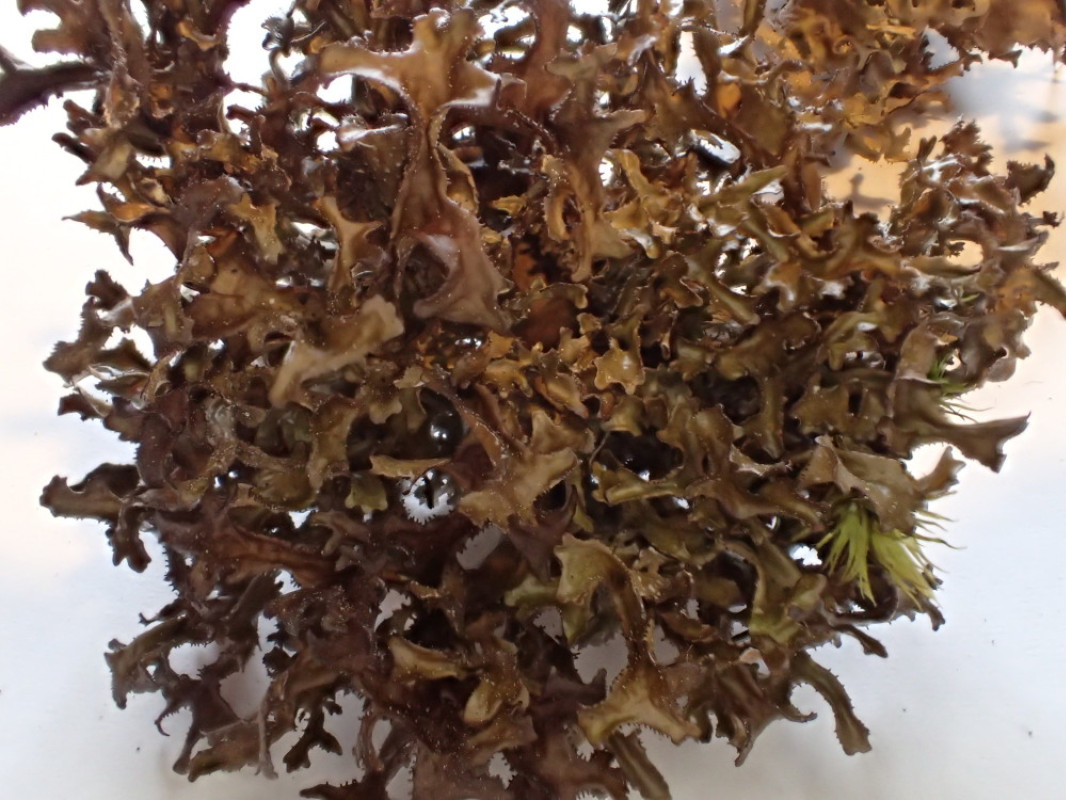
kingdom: Fungi
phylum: Ascomycota
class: Lecanoromycetes
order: Lecanorales
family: Parmeliaceae
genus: Cetraria
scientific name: Cetraria islandica
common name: islandsk kruslav
